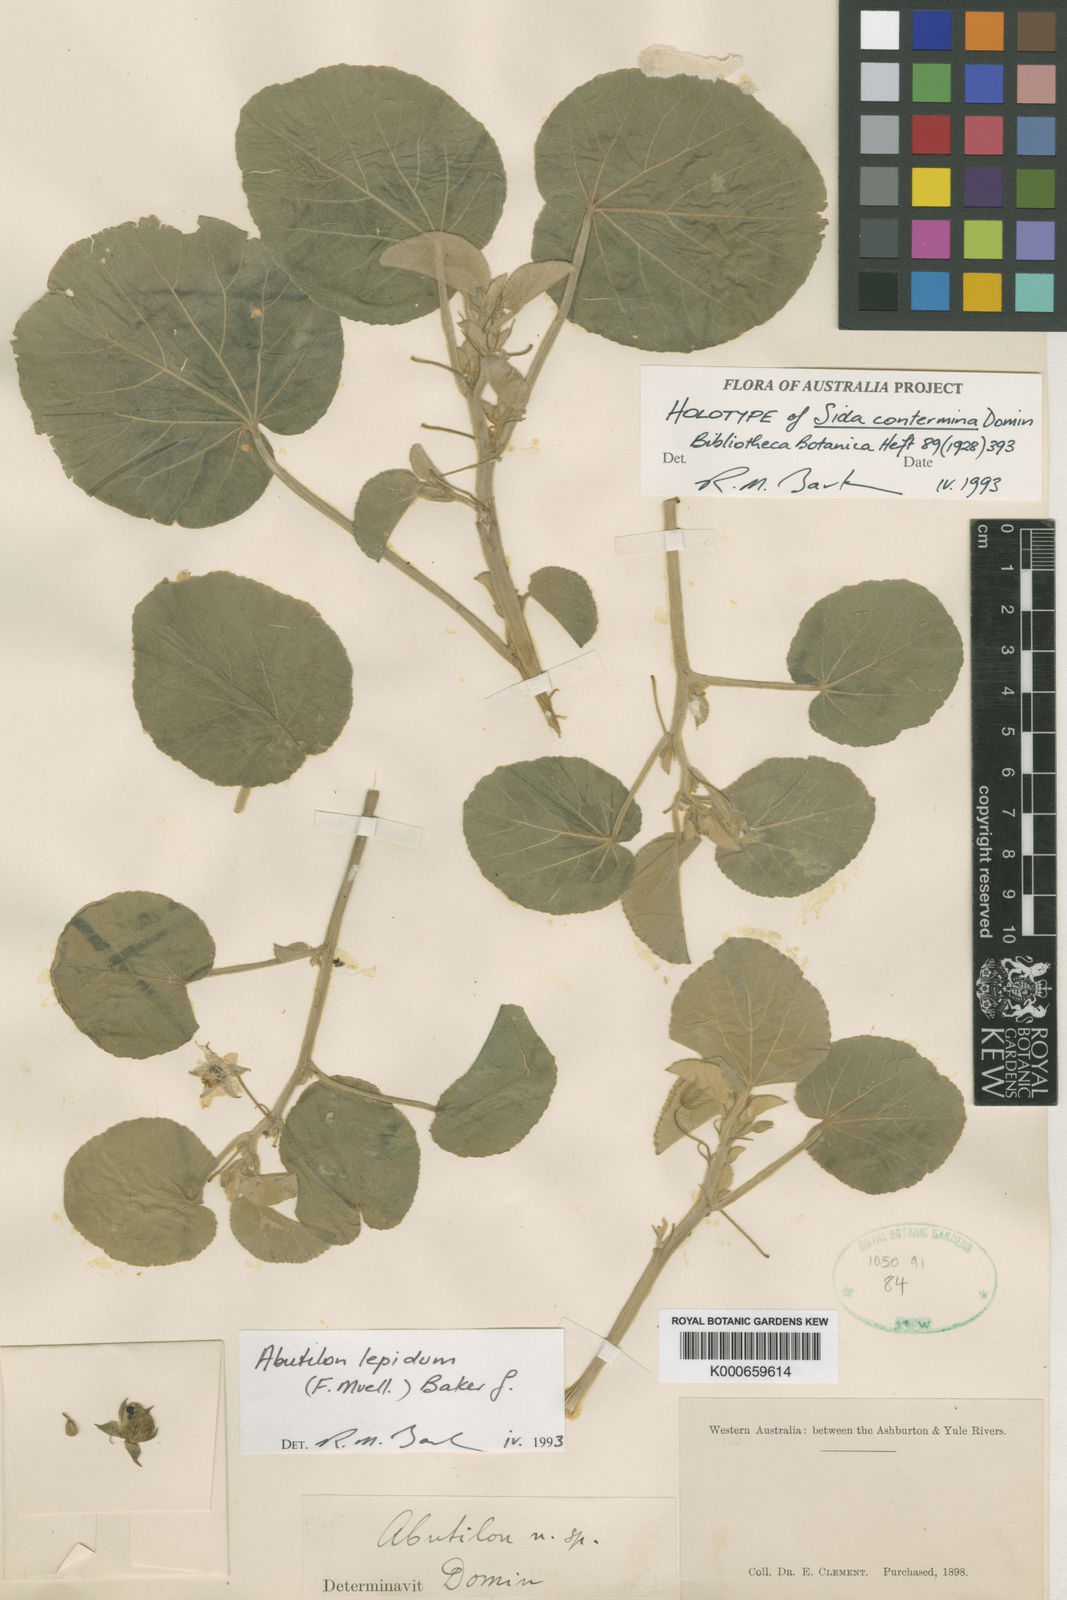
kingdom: Plantae
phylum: Tracheophyta
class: Magnoliopsida
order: Malvales
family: Malvaceae
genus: Abutilon
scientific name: Abutilon lepidum
